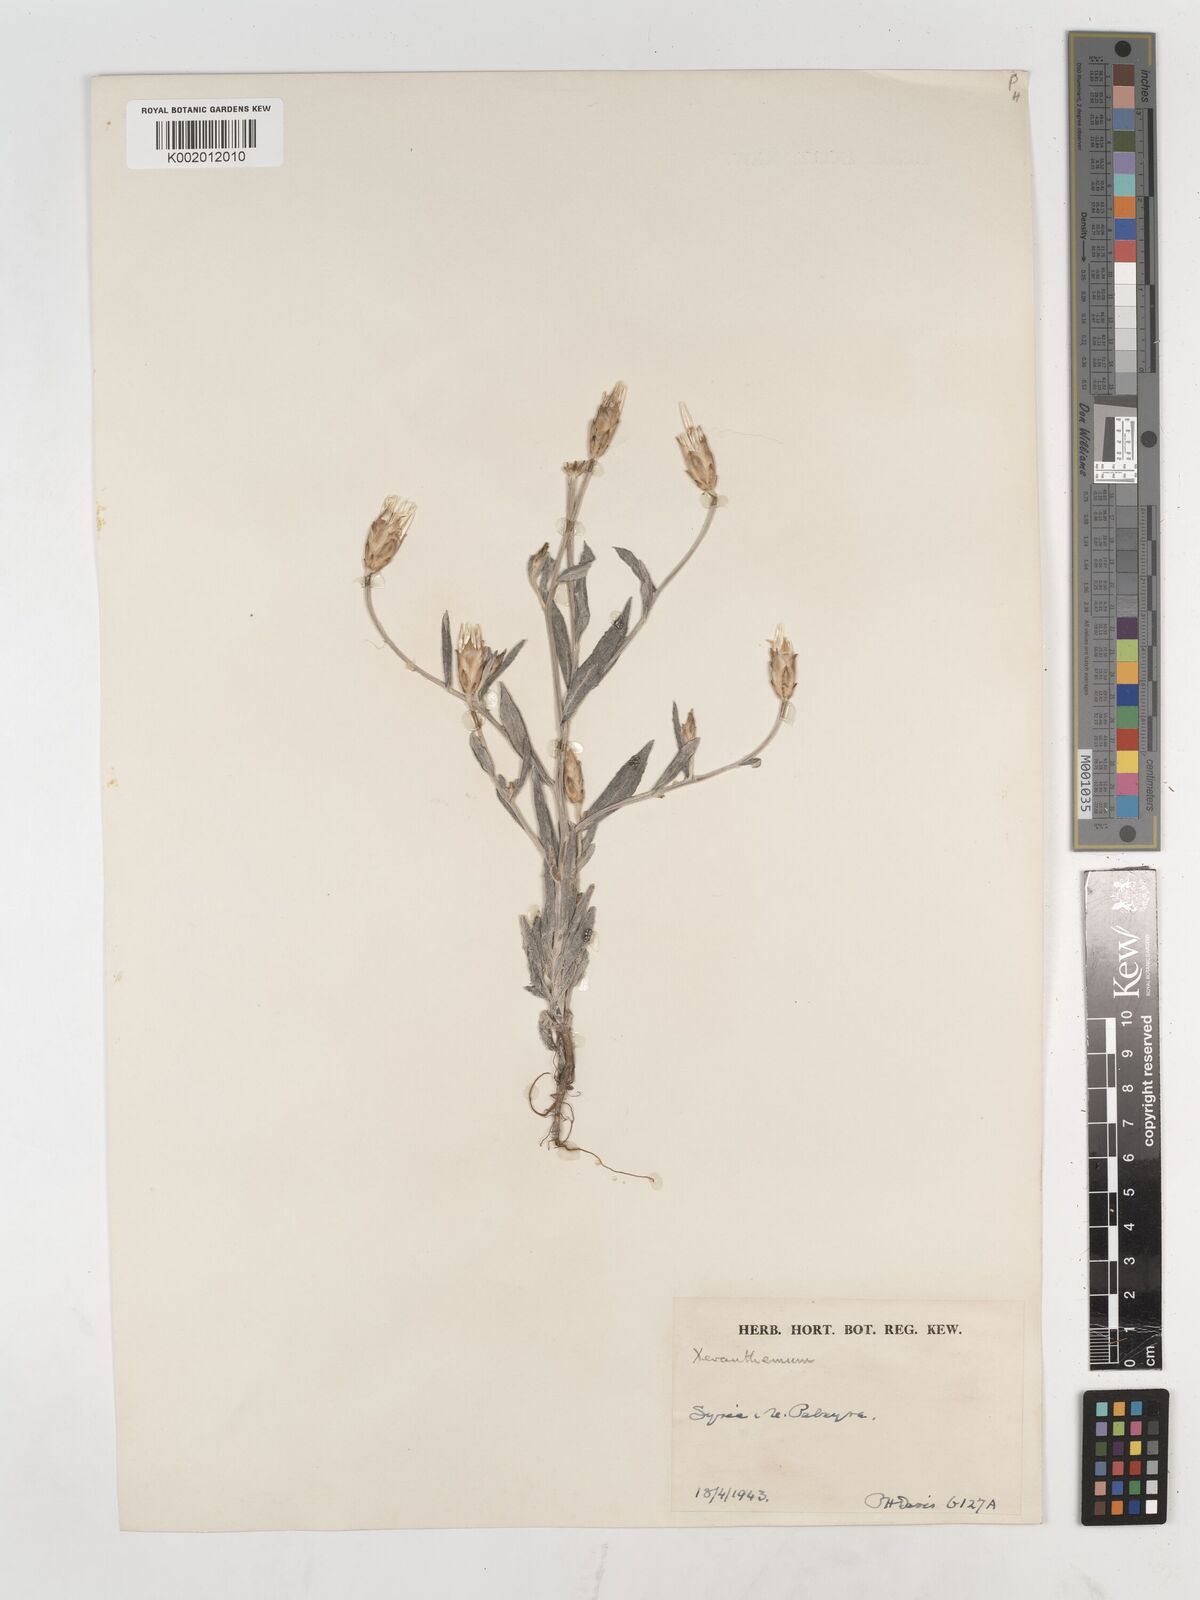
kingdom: Plantae
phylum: Tracheophyta
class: Magnoliopsida
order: Asterales
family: Asteraceae
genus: Chardinia
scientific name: Chardinia orientalis
